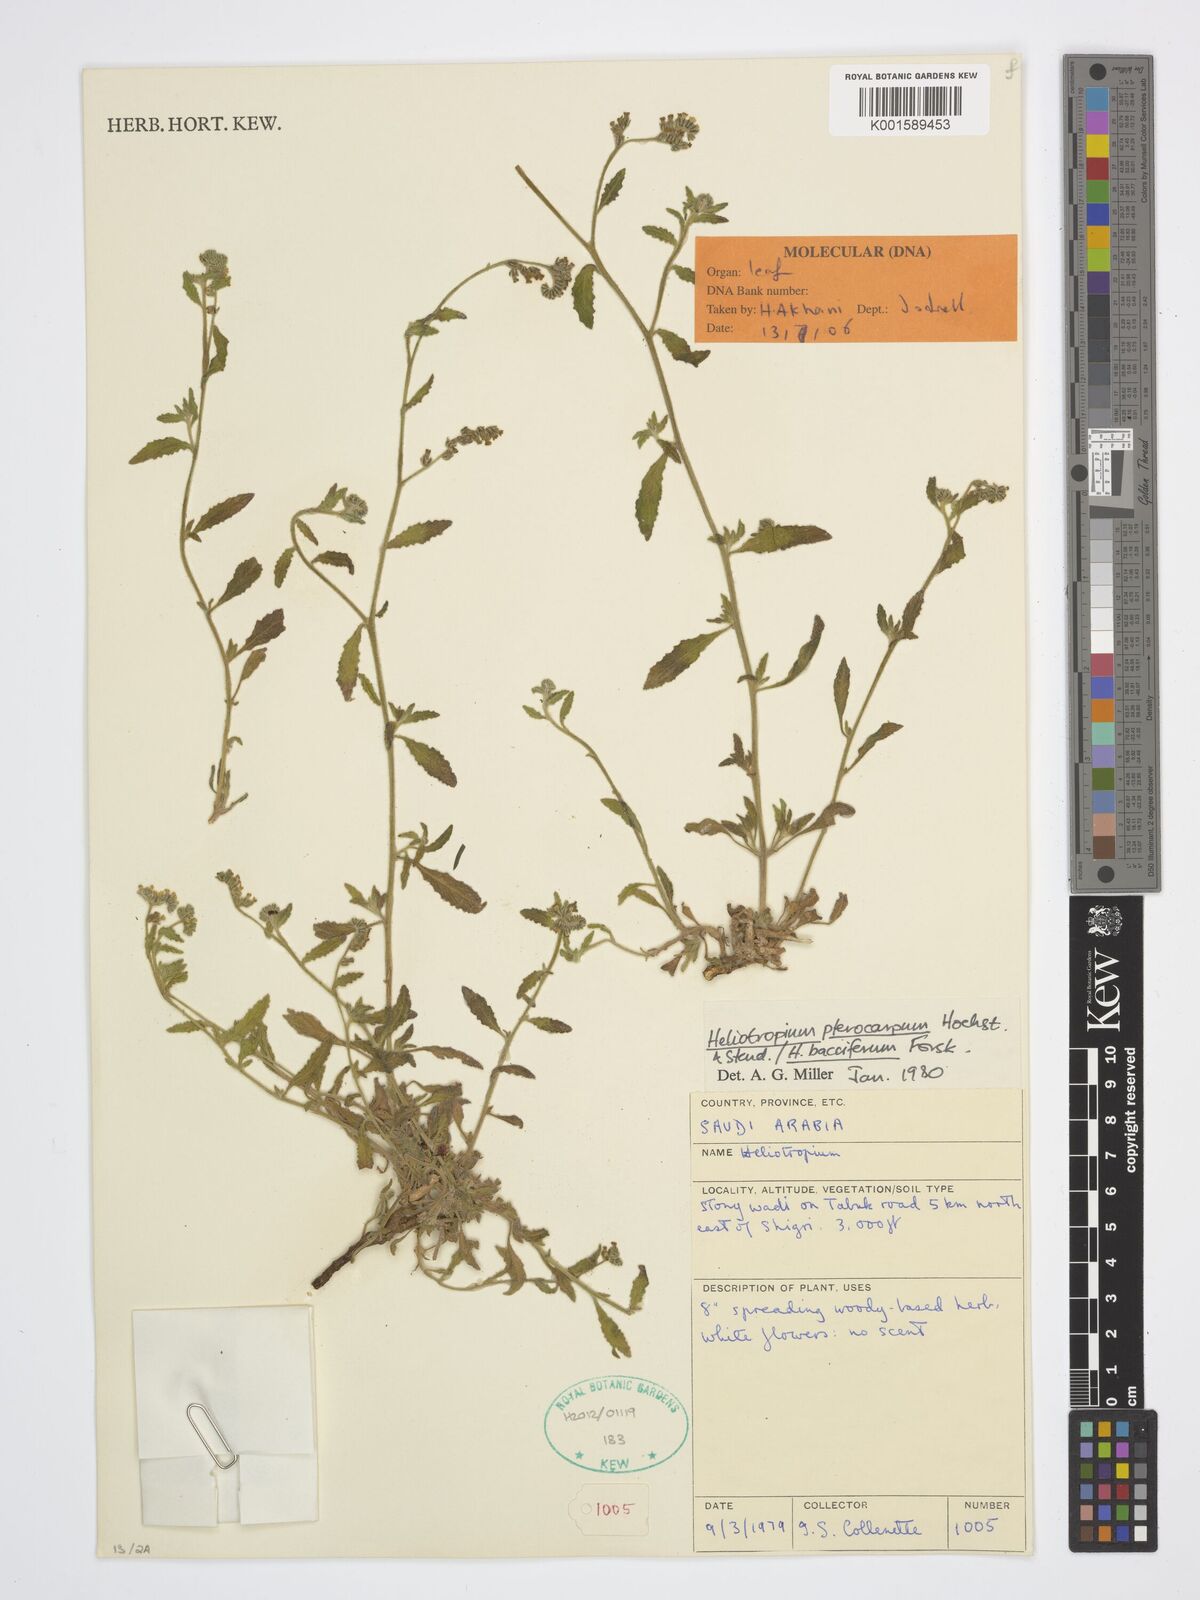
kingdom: Plantae
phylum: Tracheophyta
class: Magnoliopsida
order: Boraginales
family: Heliotropiaceae
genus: Heliotropium
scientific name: Heliotropium pterocarpum
